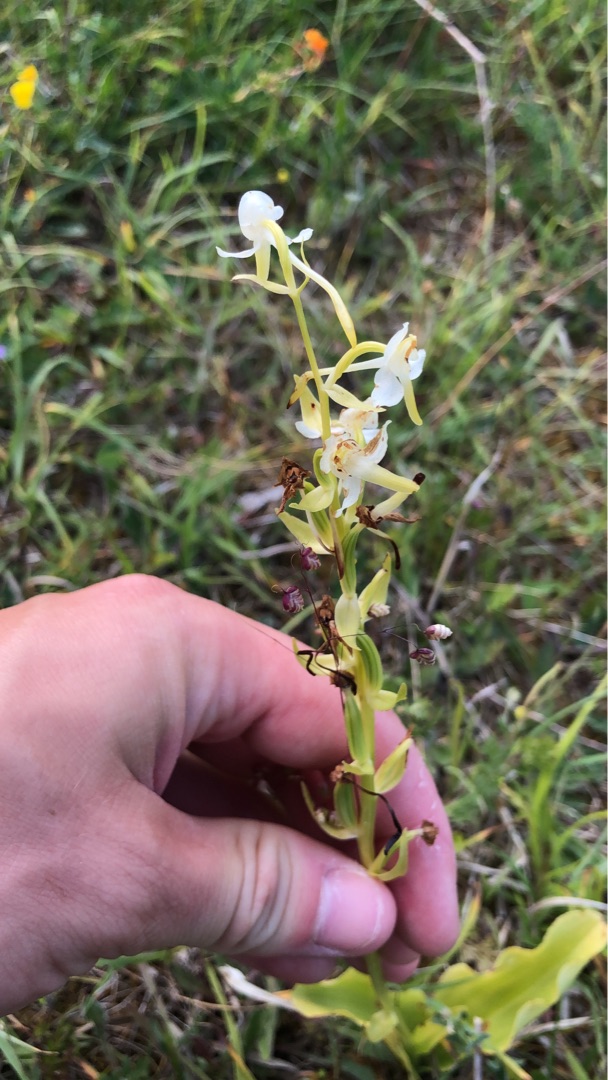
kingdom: Plantae
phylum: Tracheophyta
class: Liliopsida
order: Asparagales
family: Orchidaceae
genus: Platanthera
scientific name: Platanthera chlorantha
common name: Skov-gøgelilje
